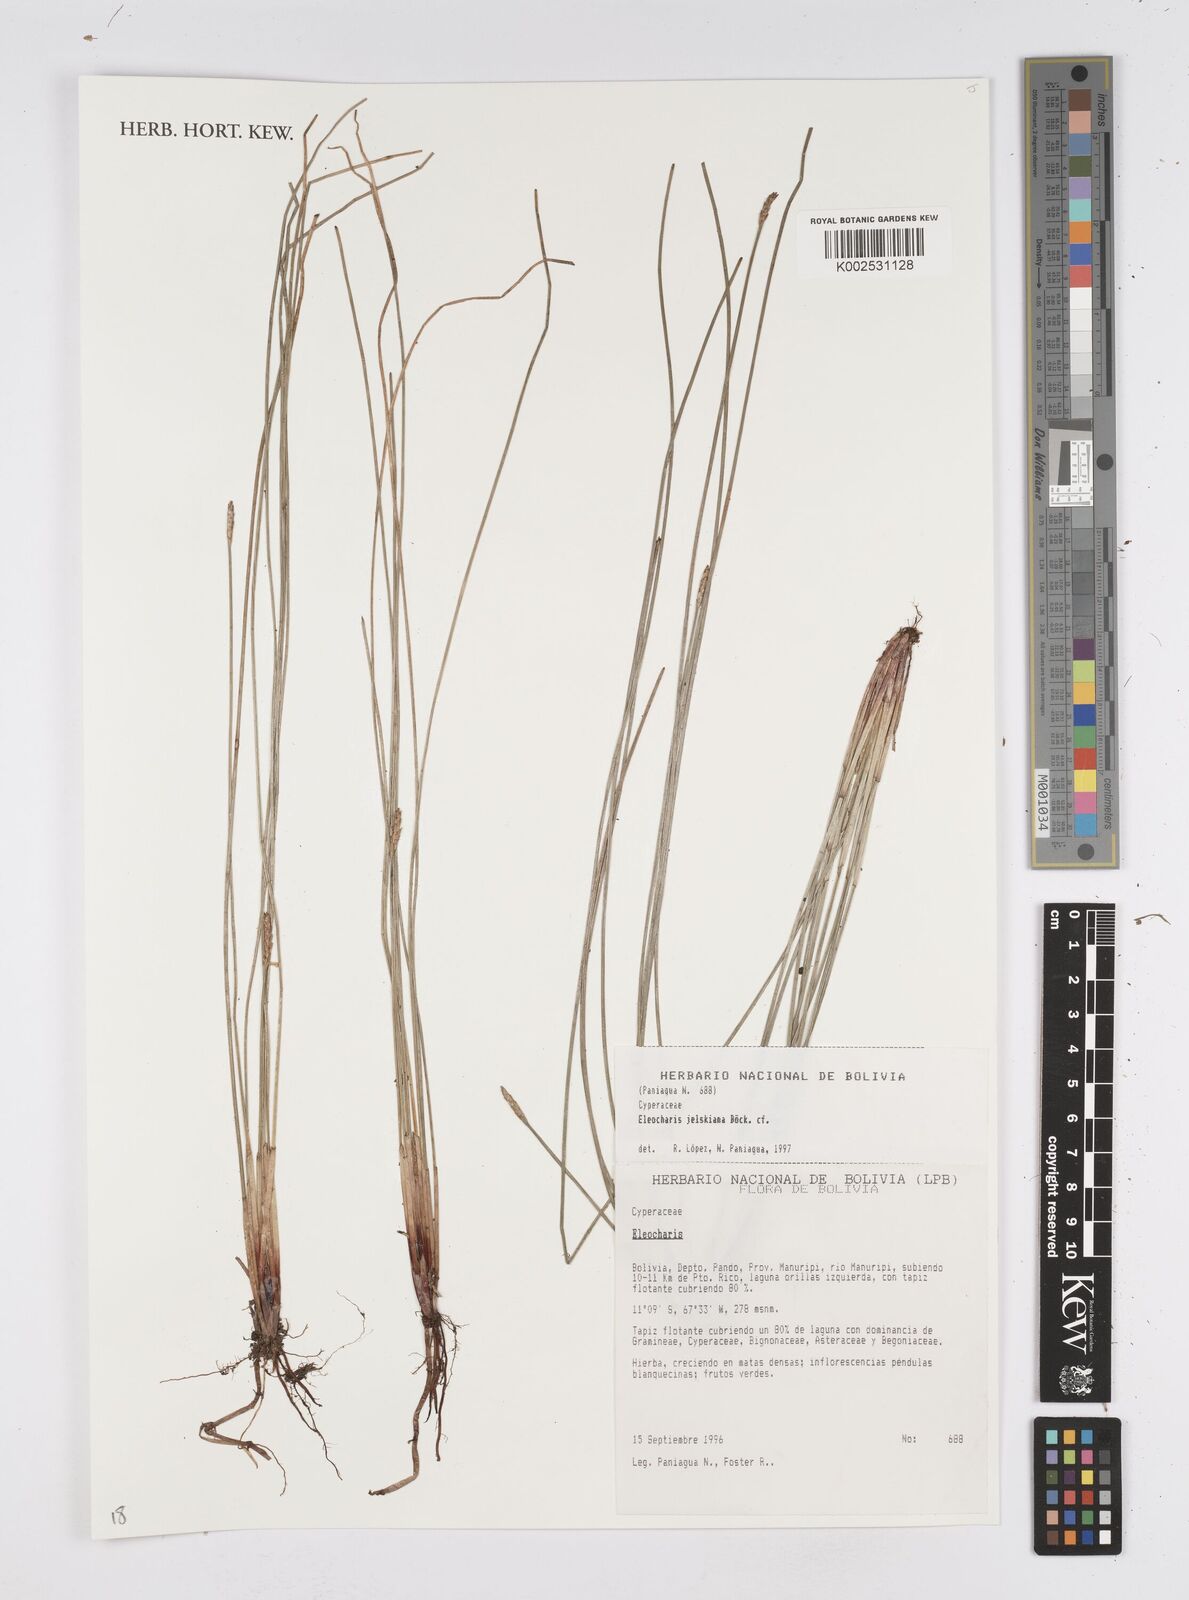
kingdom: Plantae
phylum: Tracheophyta
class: Liliopsida
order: Poales
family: Cyperaceae
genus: Eleocharis
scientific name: Eleocharis jelskiana
